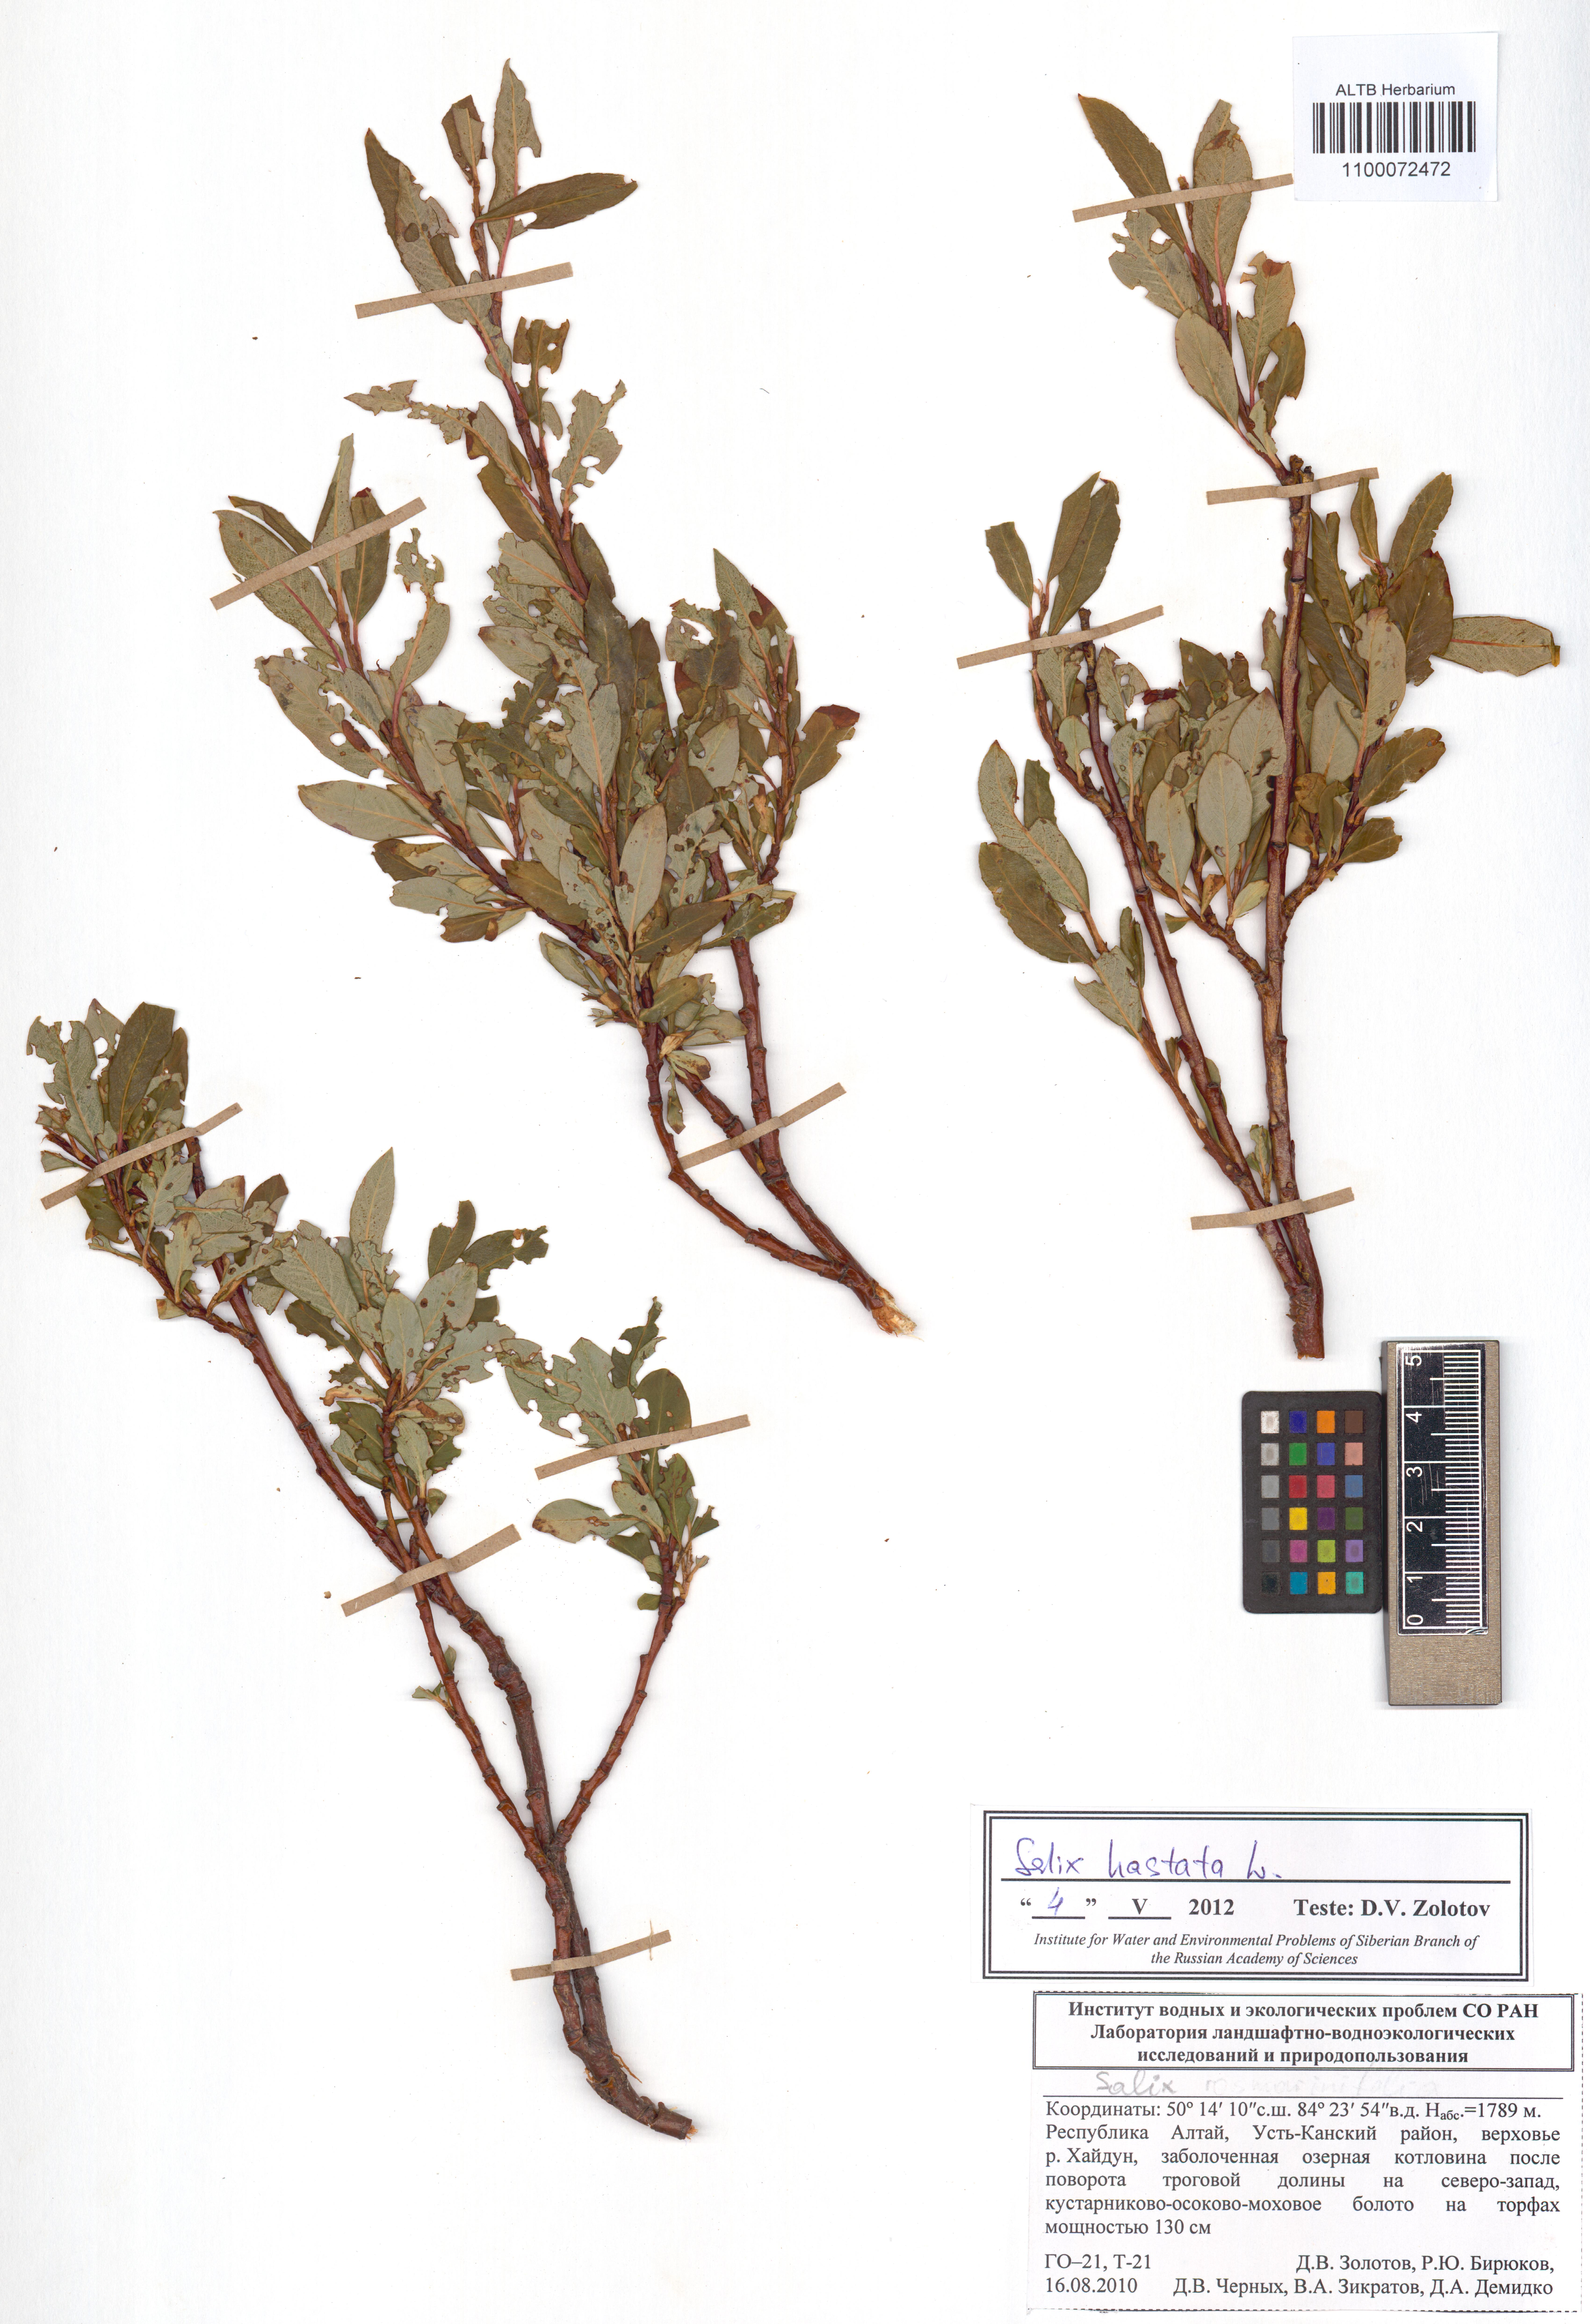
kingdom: Plantae
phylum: Tracheophyta
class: Magnoliopsida
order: Malpighiales
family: Salicaceae
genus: Salix
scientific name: Salix hastata
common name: Halberd willow
